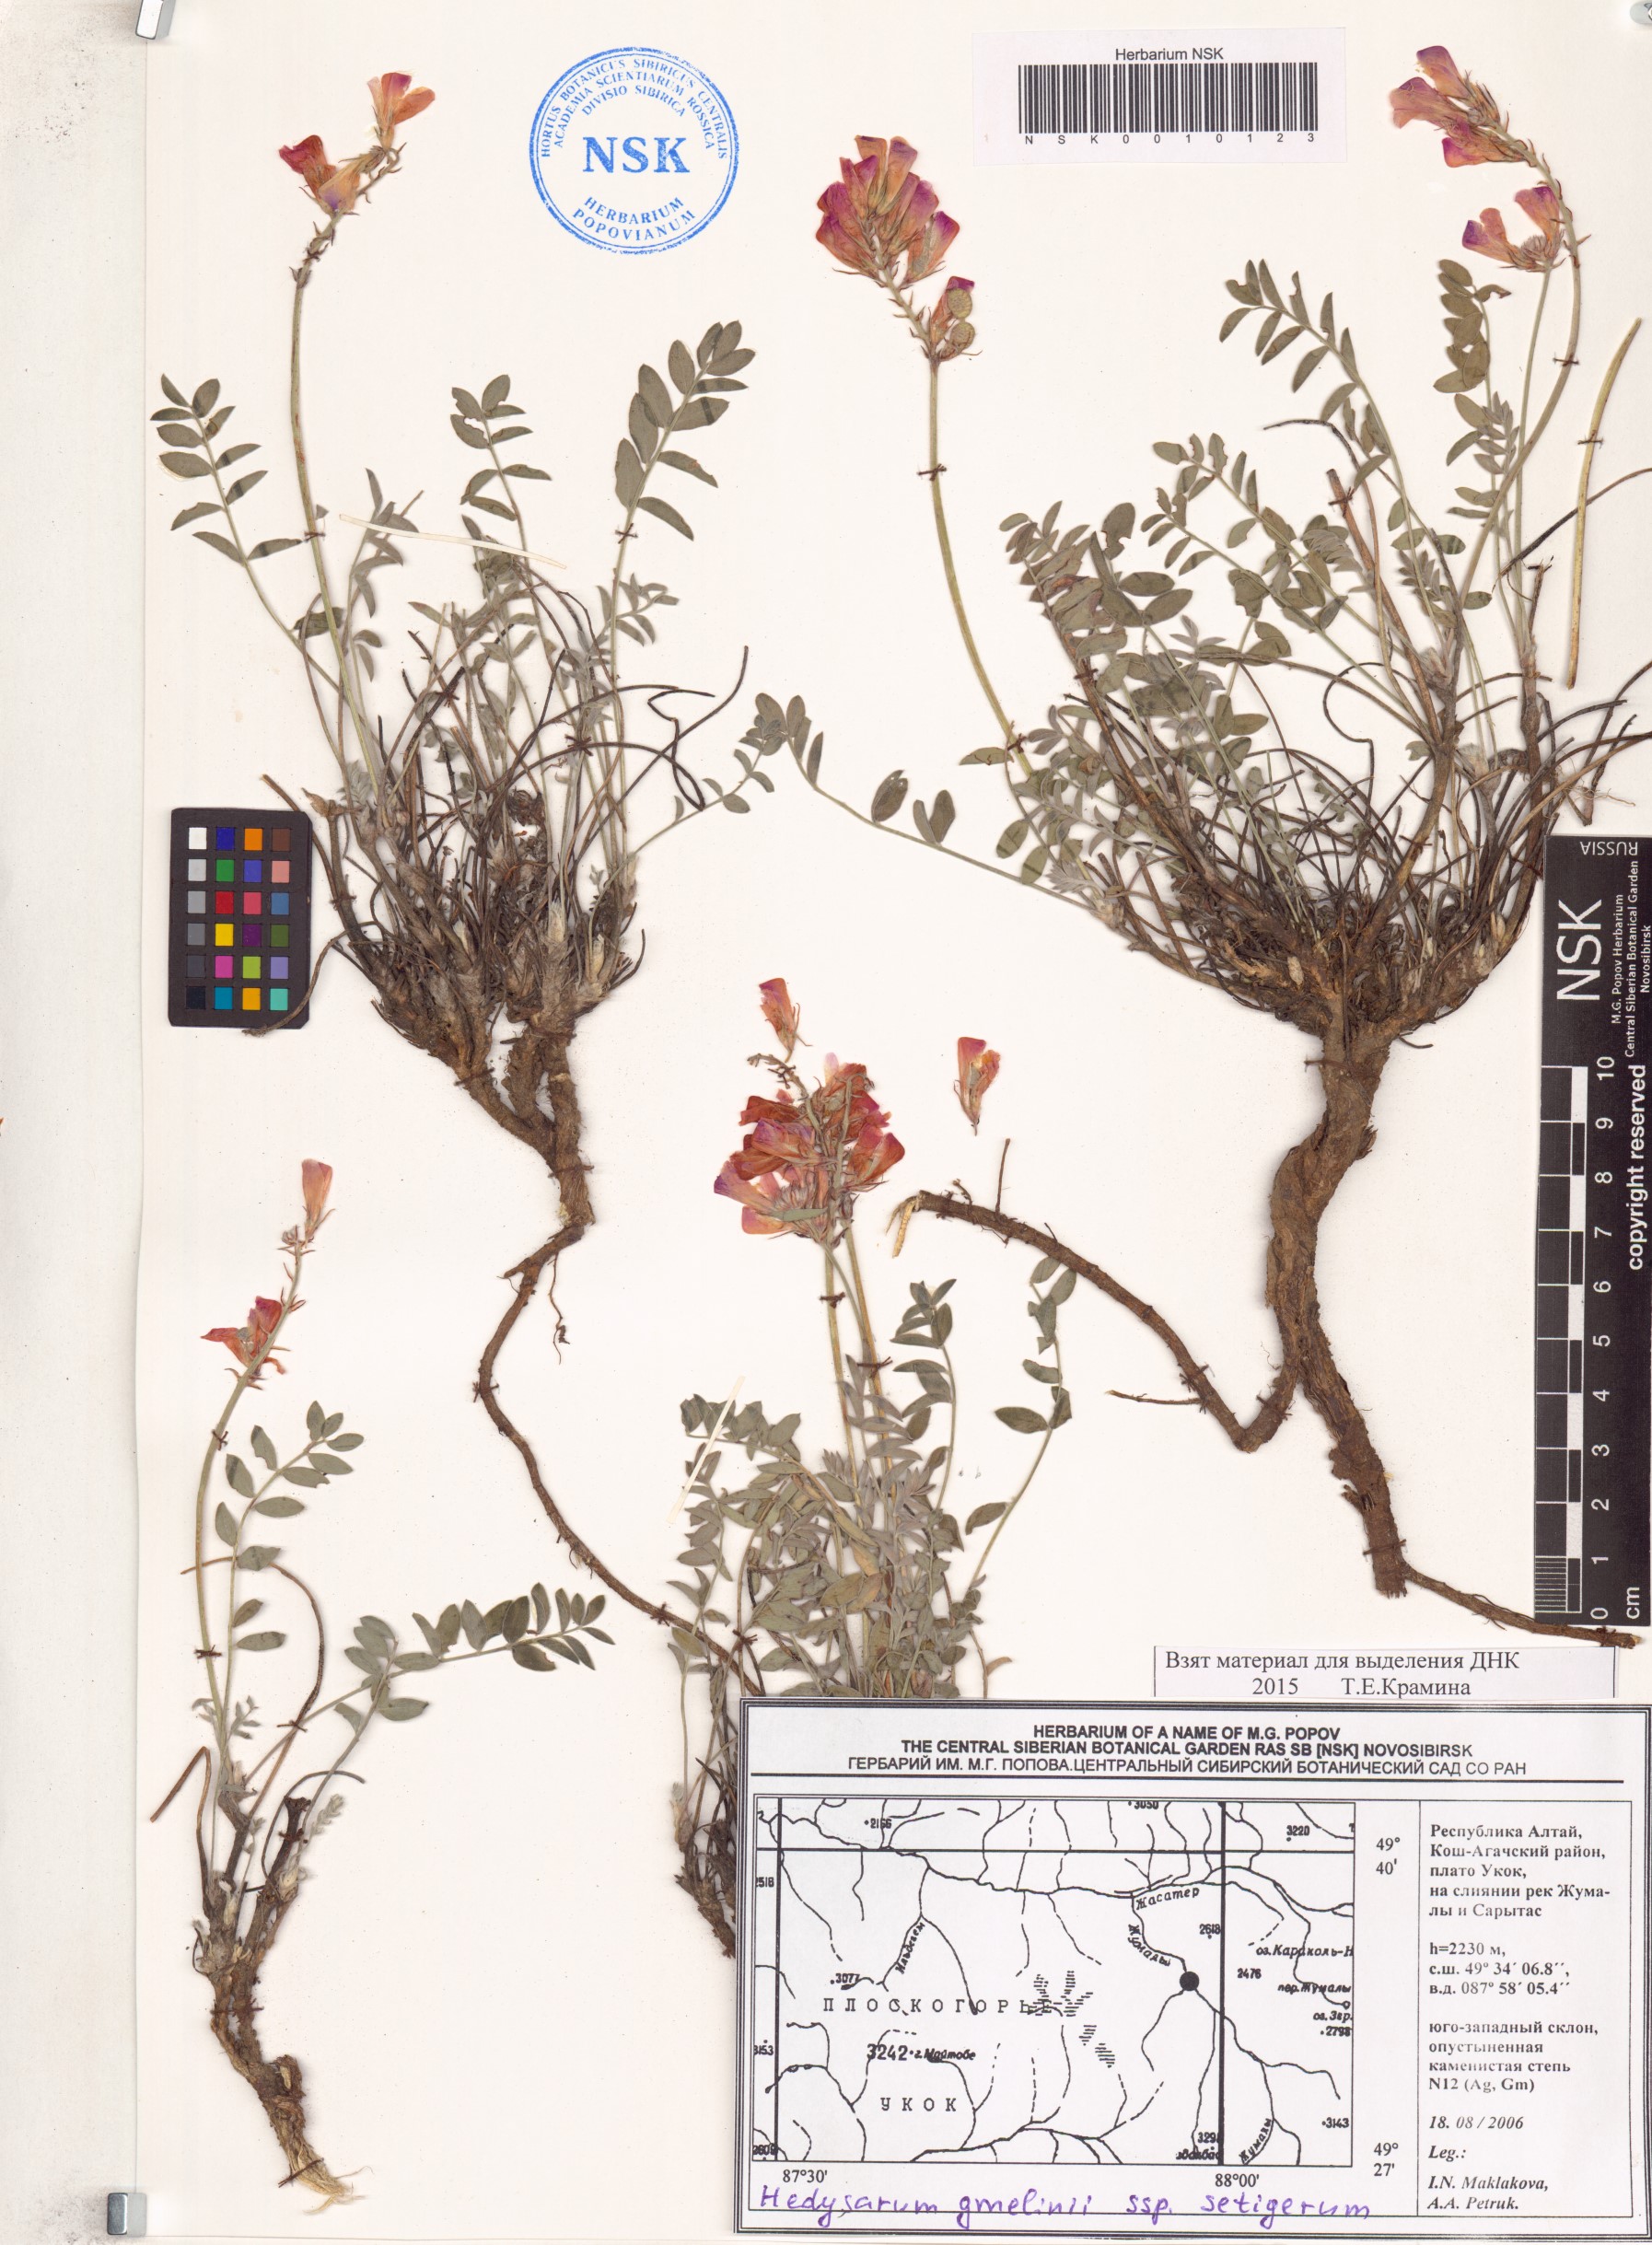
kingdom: Plantae
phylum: Tracheophyta
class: Magnoliopsida
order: Fabales
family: Fabaceae
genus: Hedysarum
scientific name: Hedysarum setigerum
